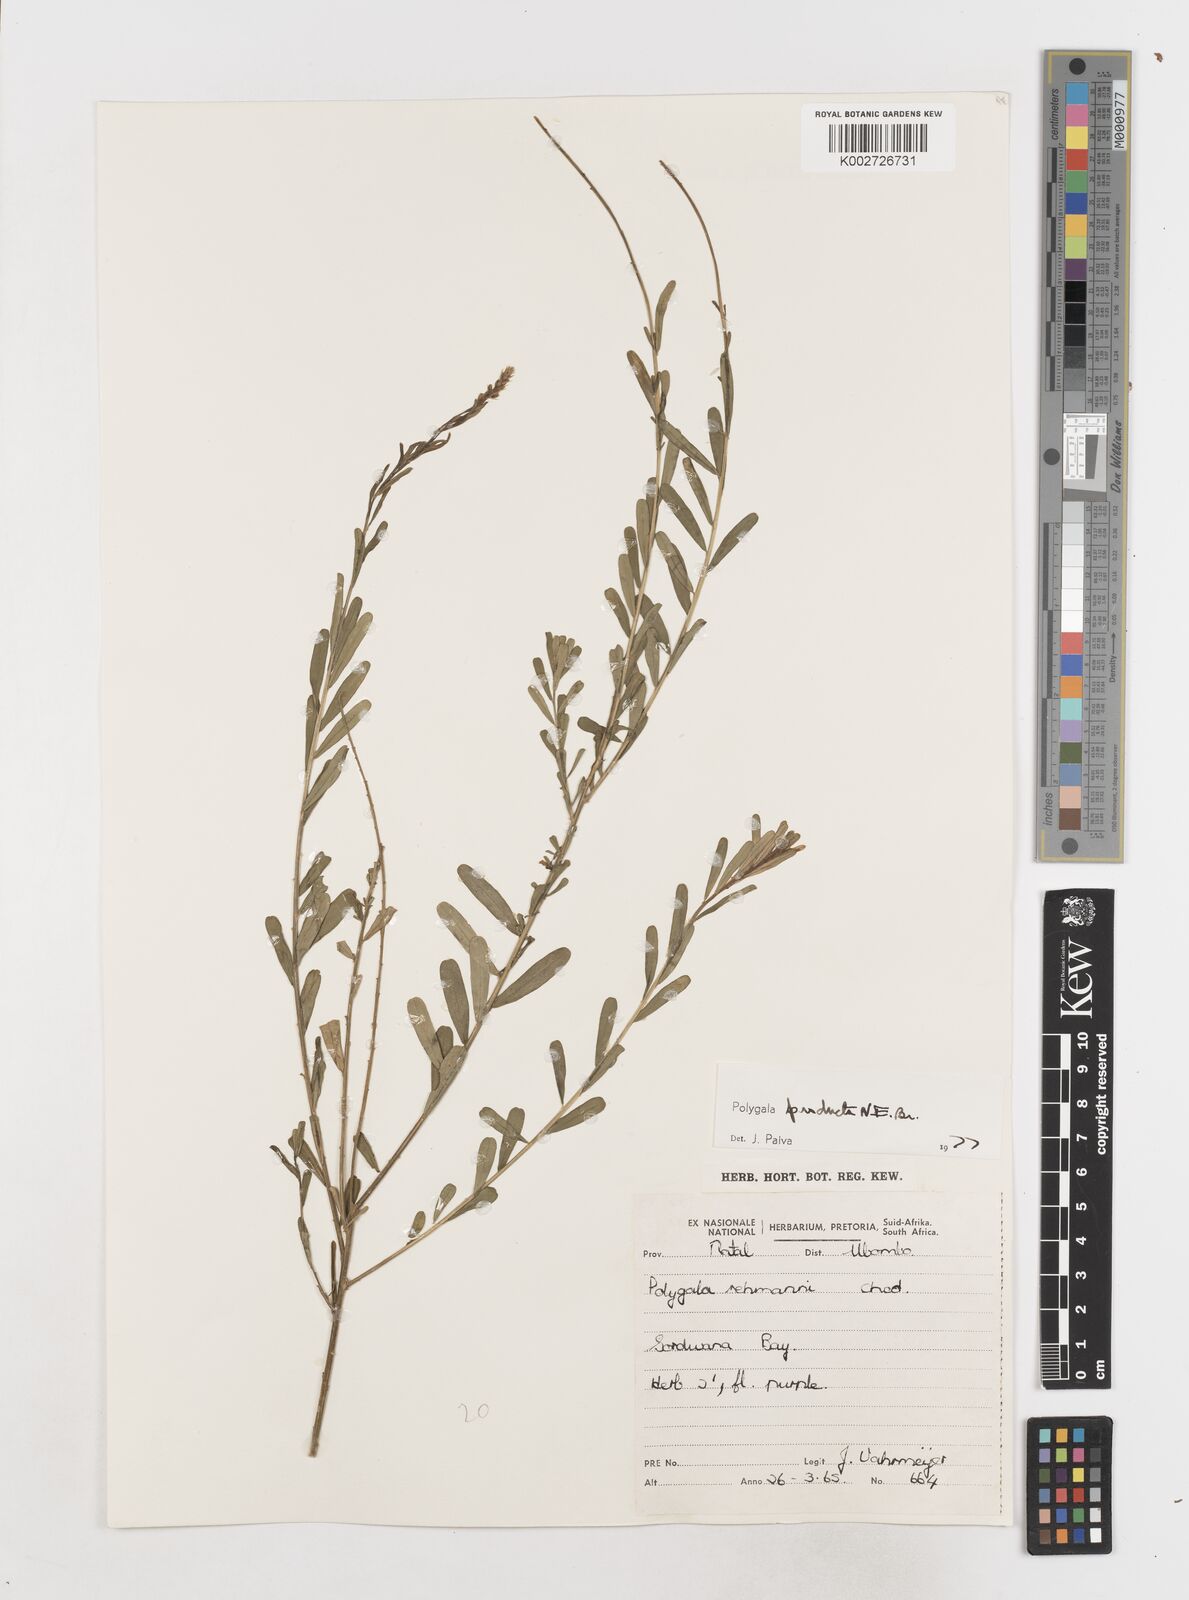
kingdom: Plantae
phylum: Tracheophyta
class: Magnoliopsida
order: Fabales
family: Polygalaceae
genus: Polygala
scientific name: Polygala producta
